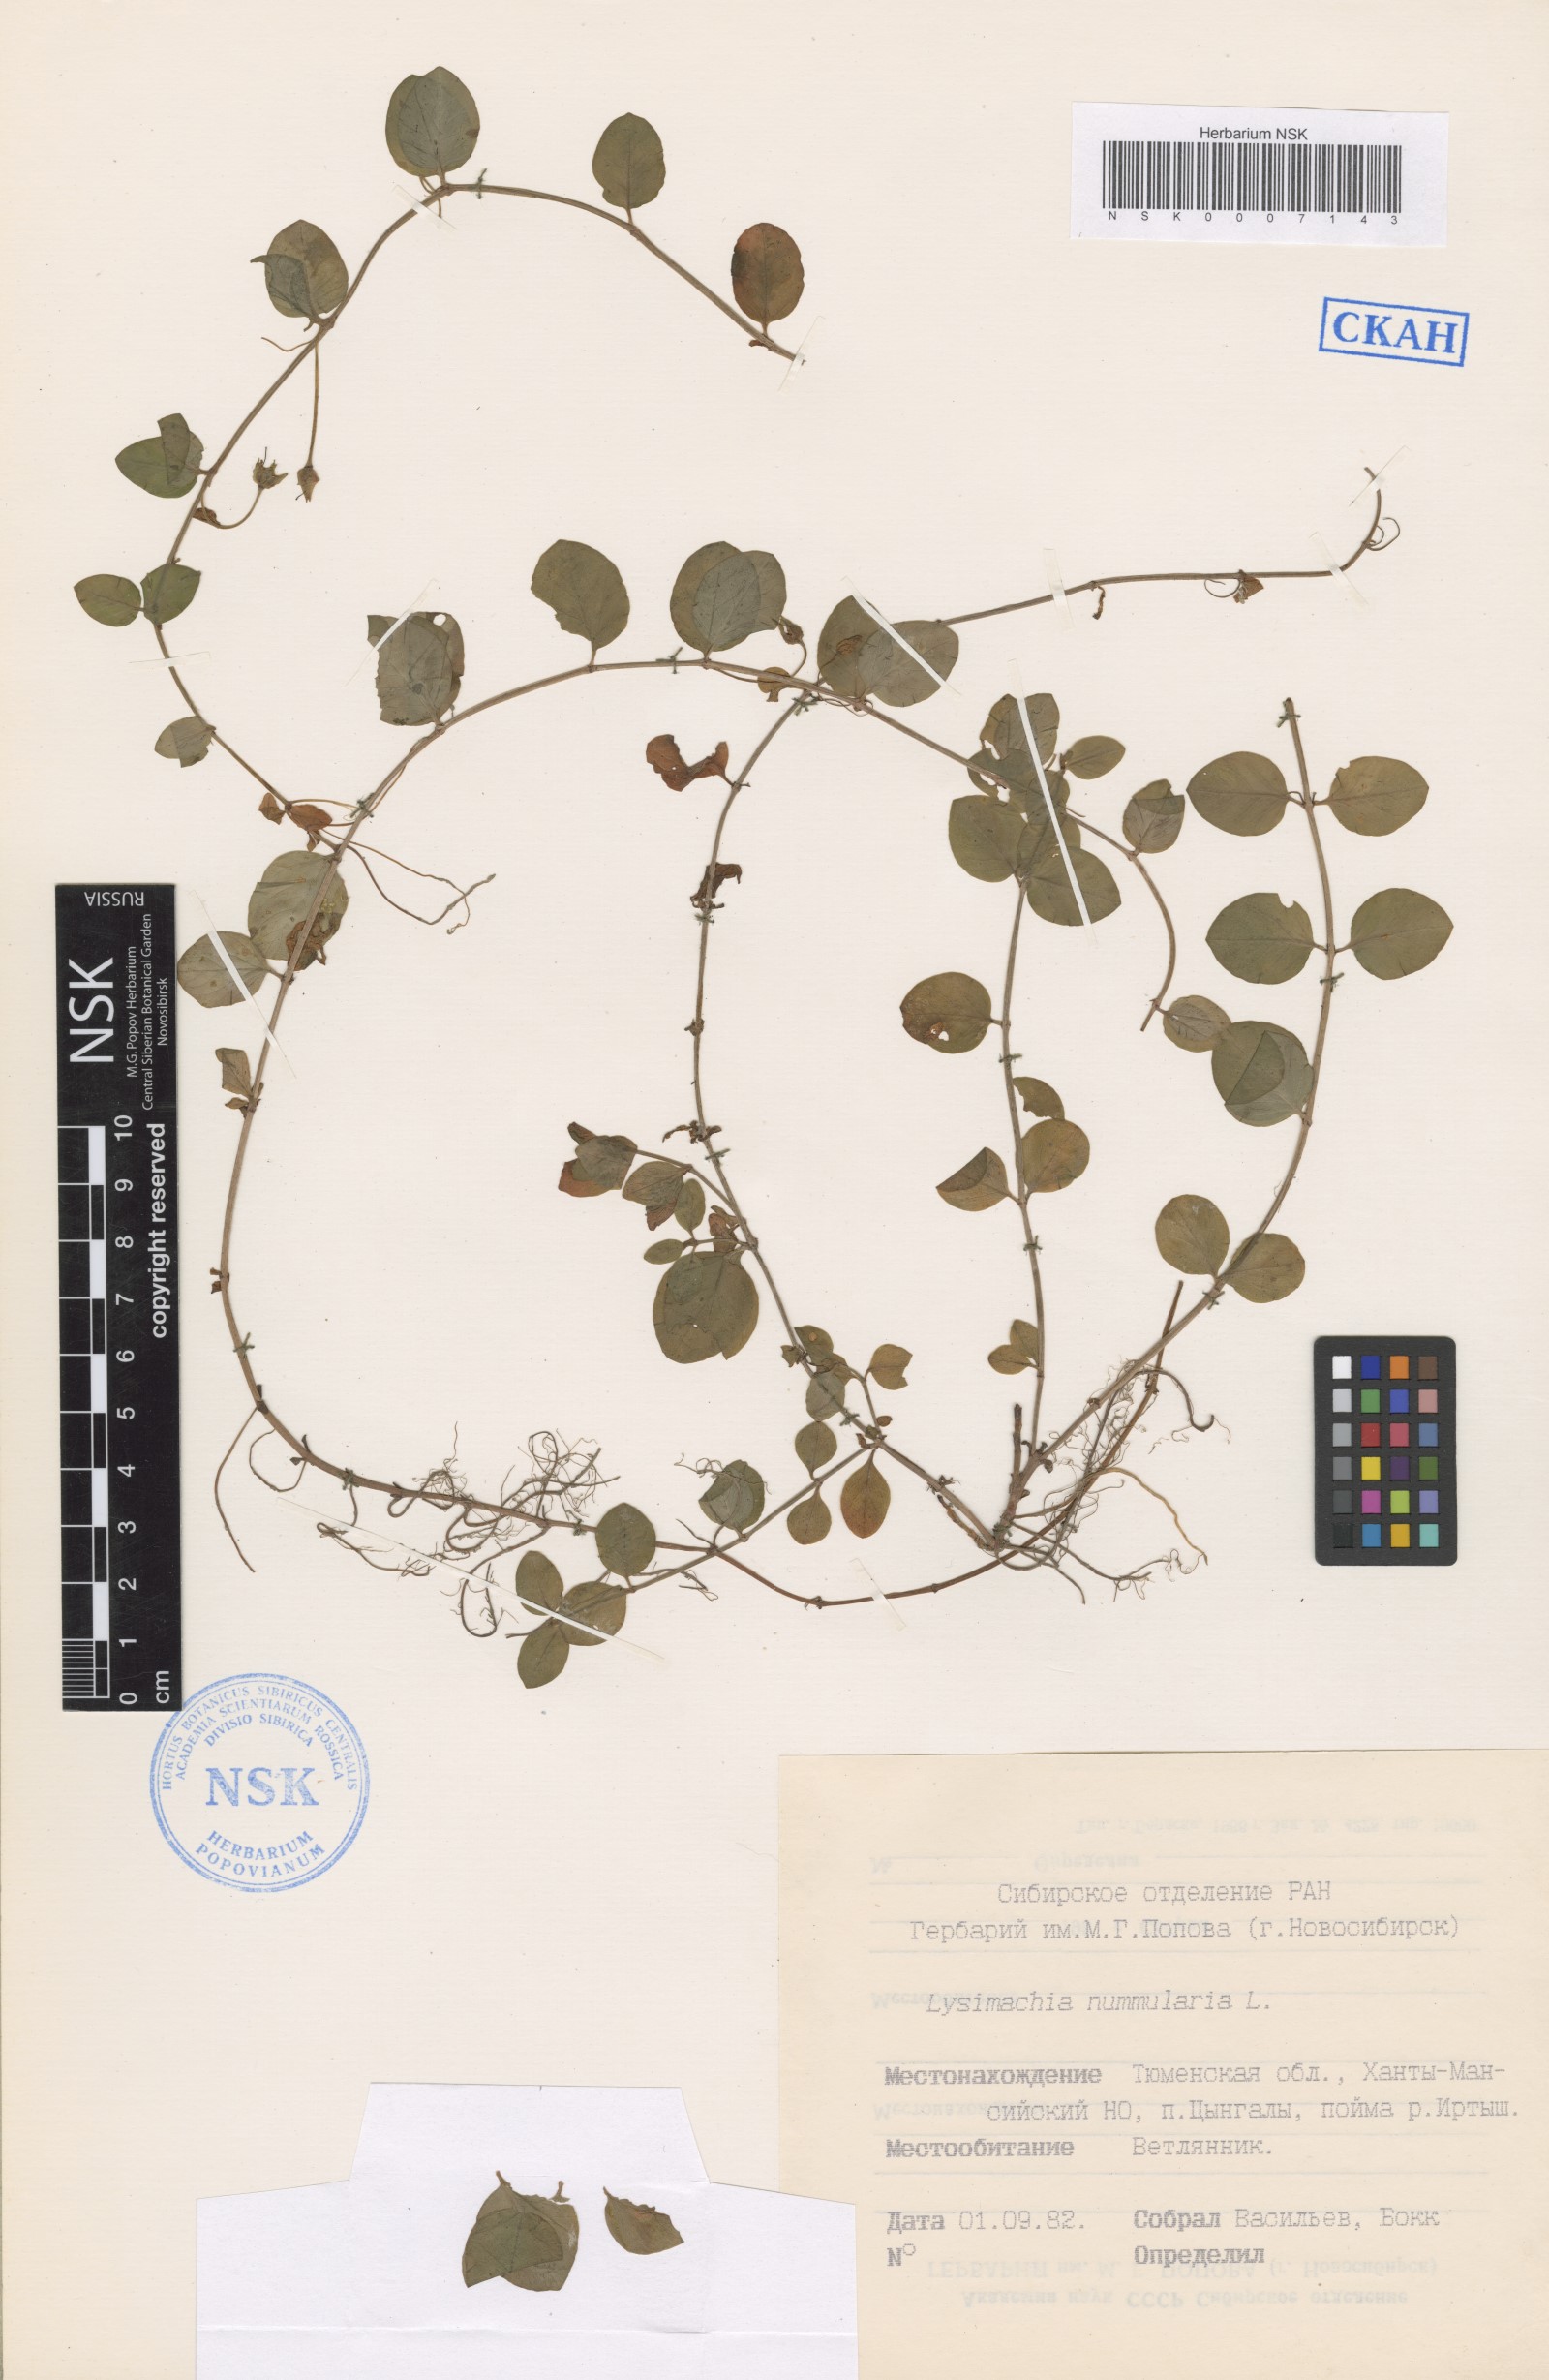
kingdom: Plantae
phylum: Tracheophyta
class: Magnoliopsida
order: Ericales
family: Primulaceae
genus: Lysimachia
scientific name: Lysimachia nummularia
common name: Moneywort
